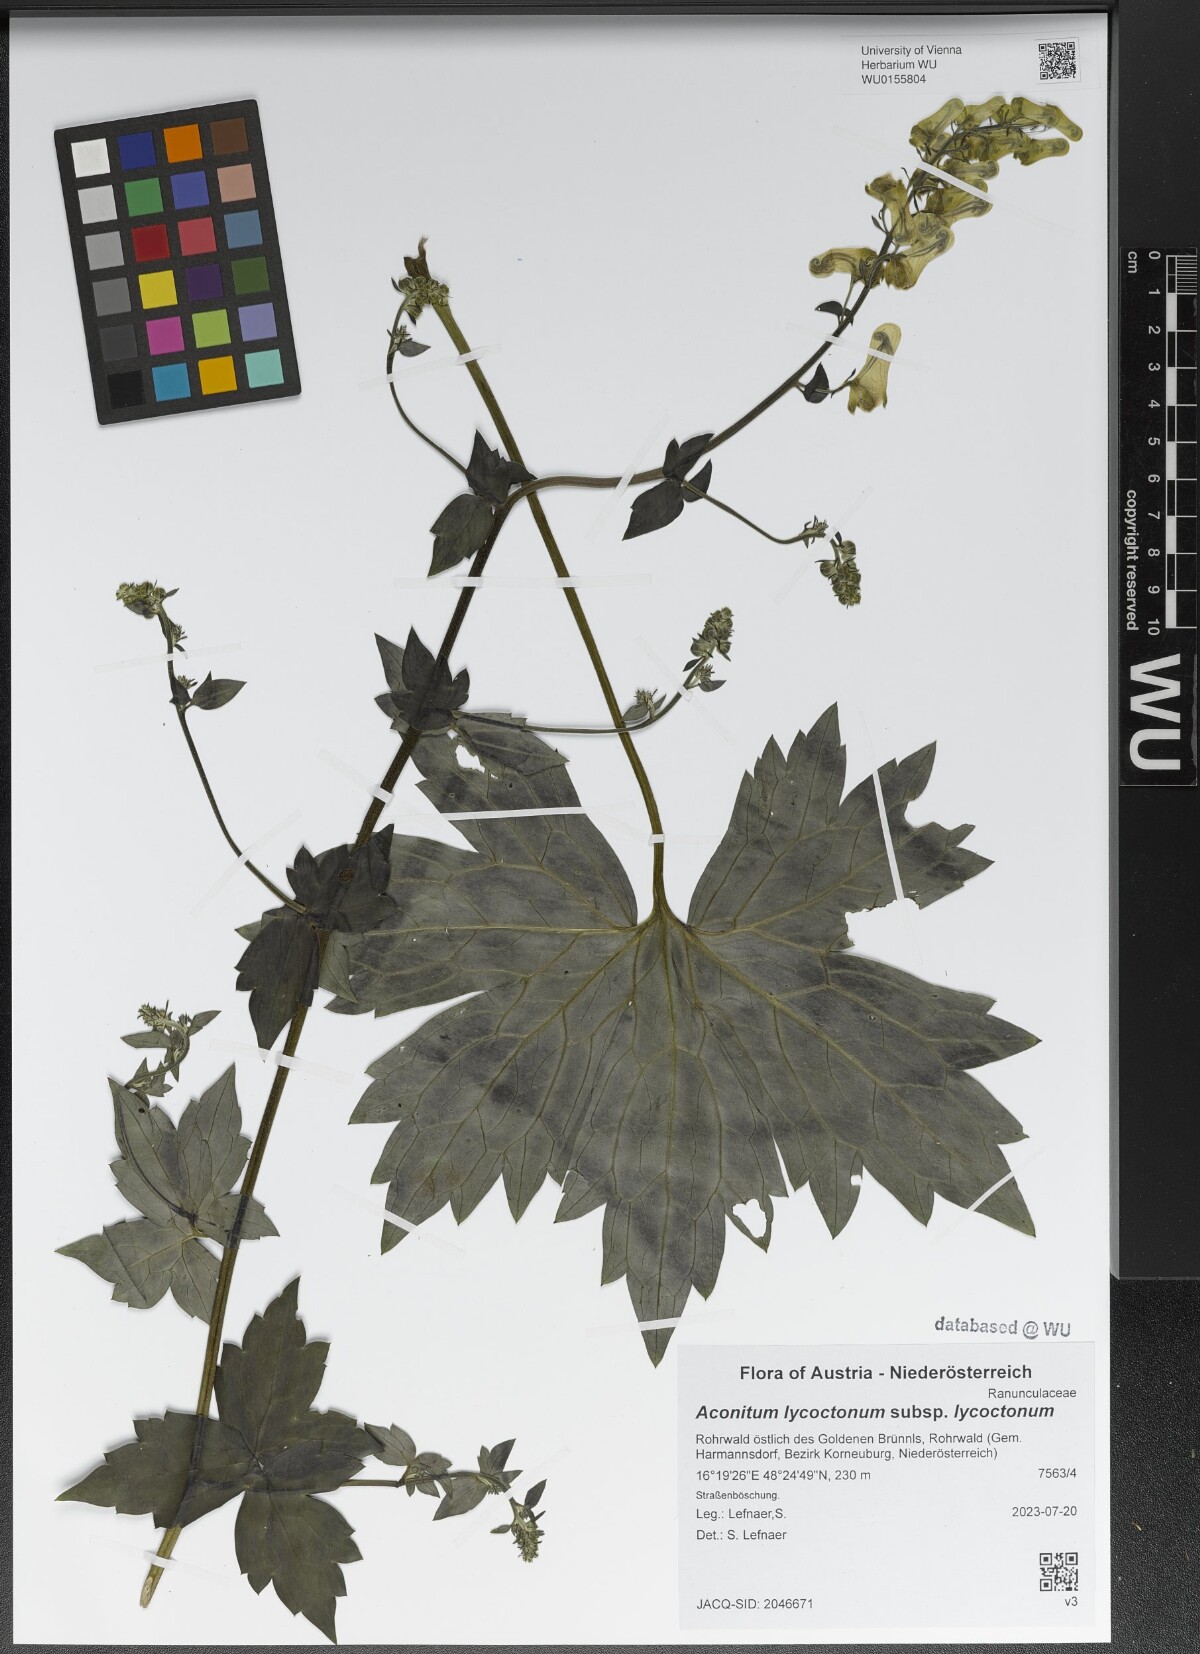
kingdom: Plantae
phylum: Tracheophyta
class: Magnoliopsida
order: Ranunculales
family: Ranunculaceae
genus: Aconitum
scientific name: Aconitum lycoctonum
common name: Wolf's-bane
